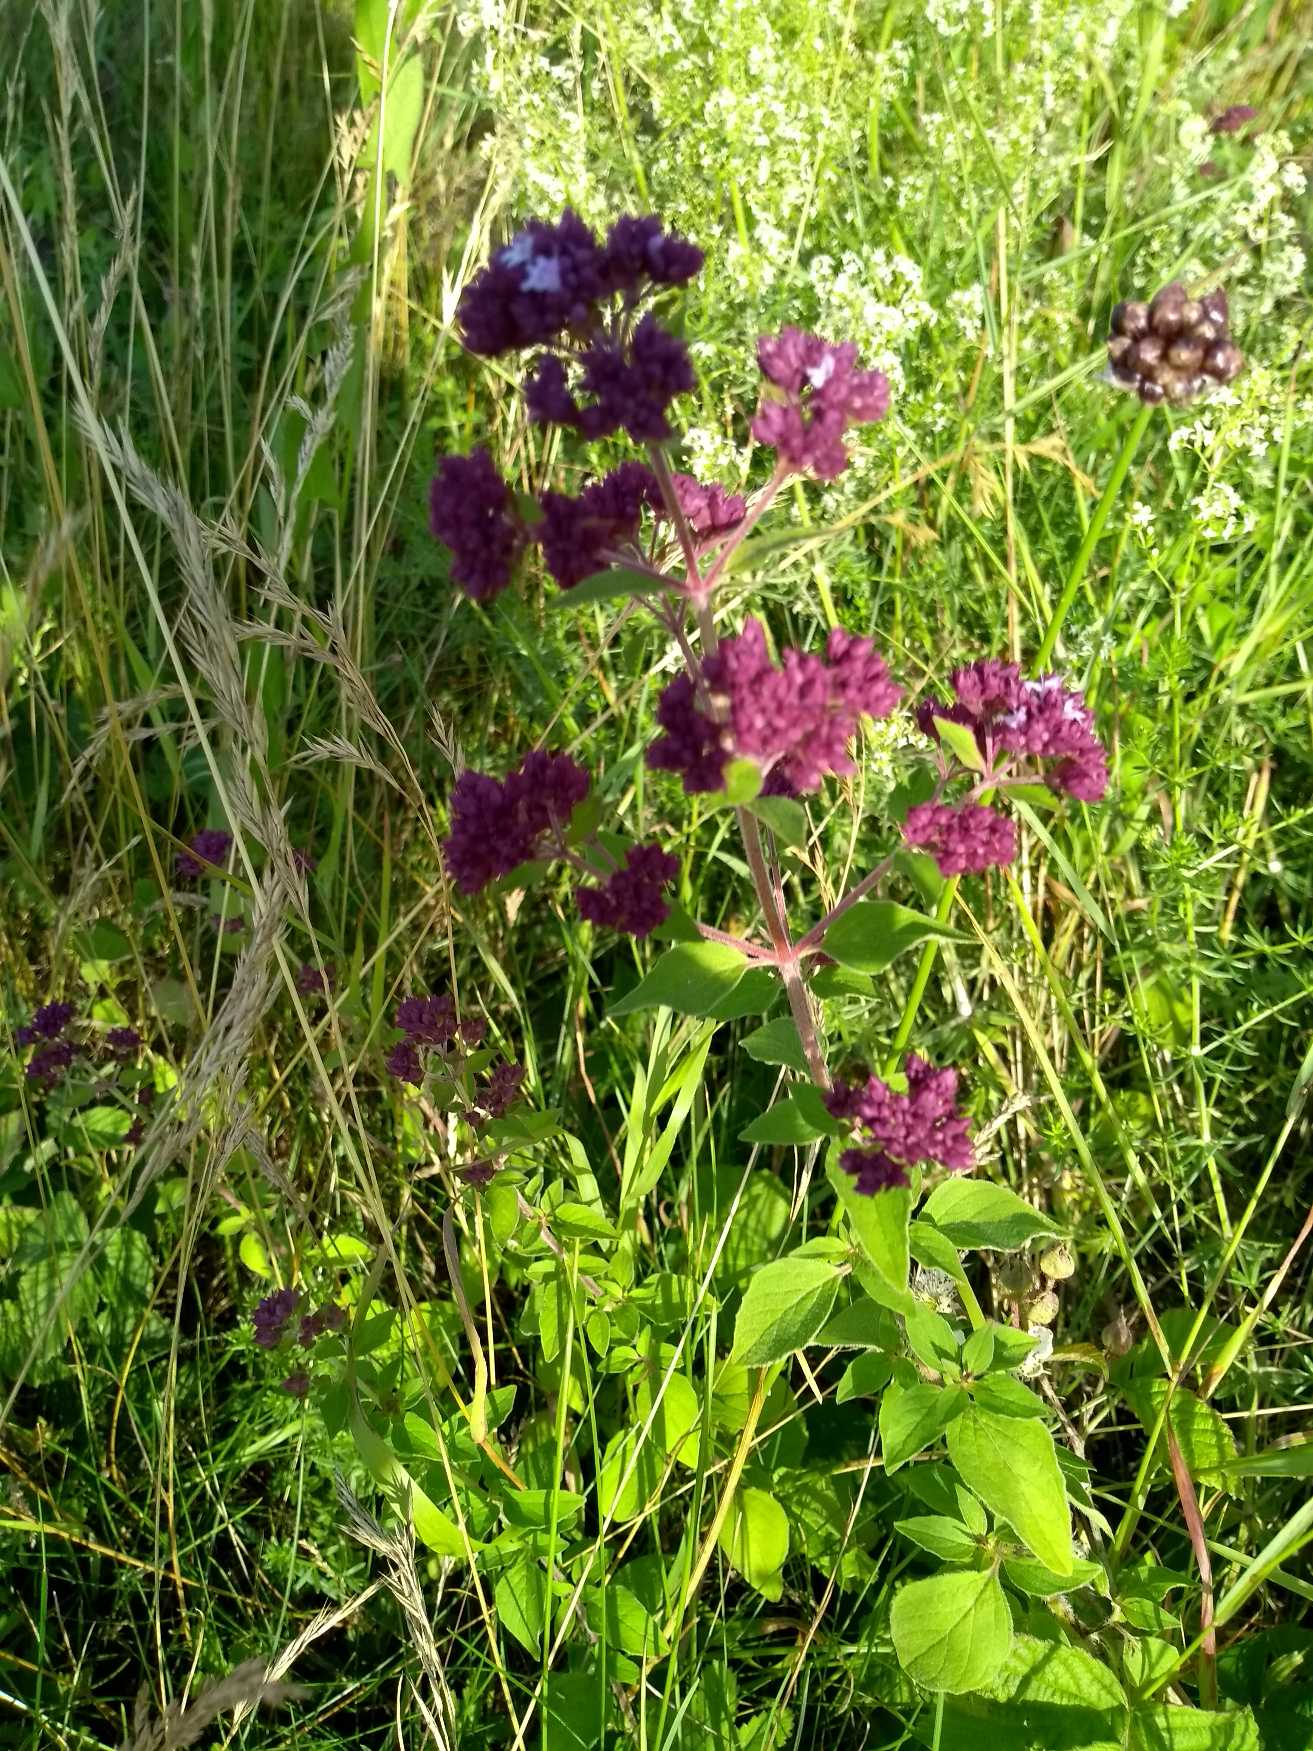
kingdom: Plantae
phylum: Tracheophyta
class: Magnoliopsida
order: Lamiales
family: Lamiaceae
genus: Origanum
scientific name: Origanum vulgare
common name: Merian
